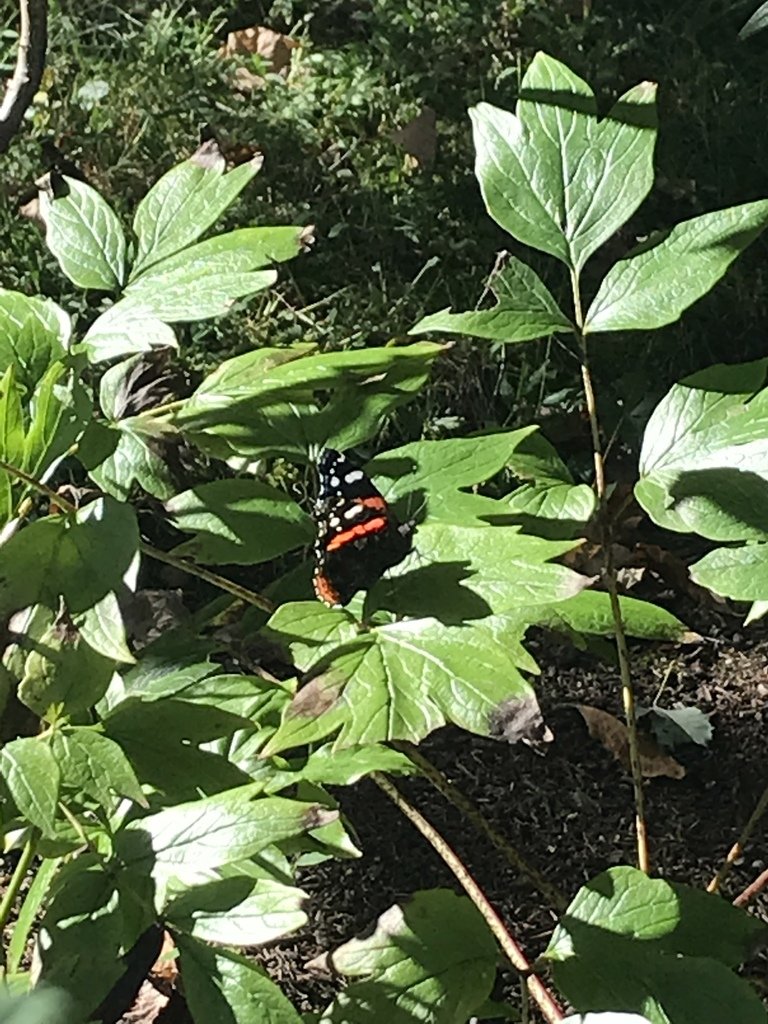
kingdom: Animalia
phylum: Arthropoda
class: Insecta
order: Lepidoptera
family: Nymphalidae
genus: Vanessa
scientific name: Vanessa atalanta
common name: Red Admiral
